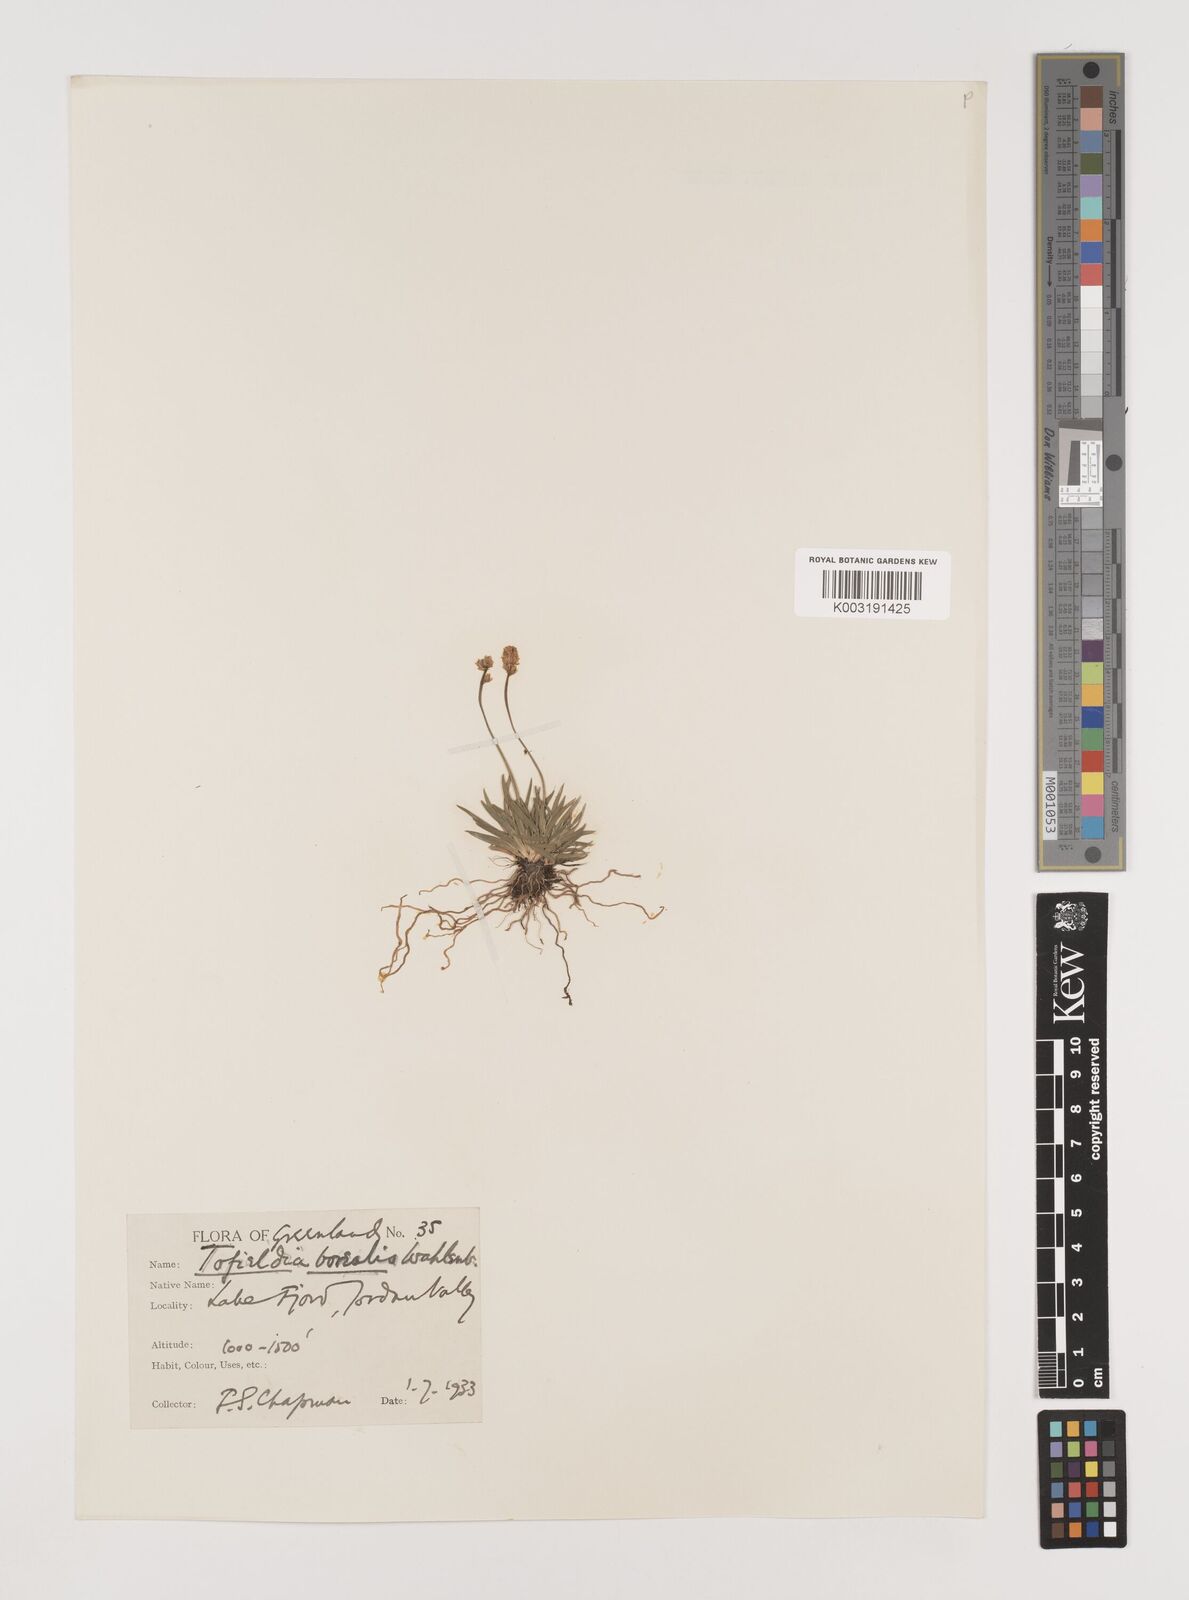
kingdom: Plantae
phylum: Tracheophyta
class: Liliopsida
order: Alismatales
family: Tofieldiaceae
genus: Tofieldia
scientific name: Tofieldia pusilla
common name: Scottish false asphodel
